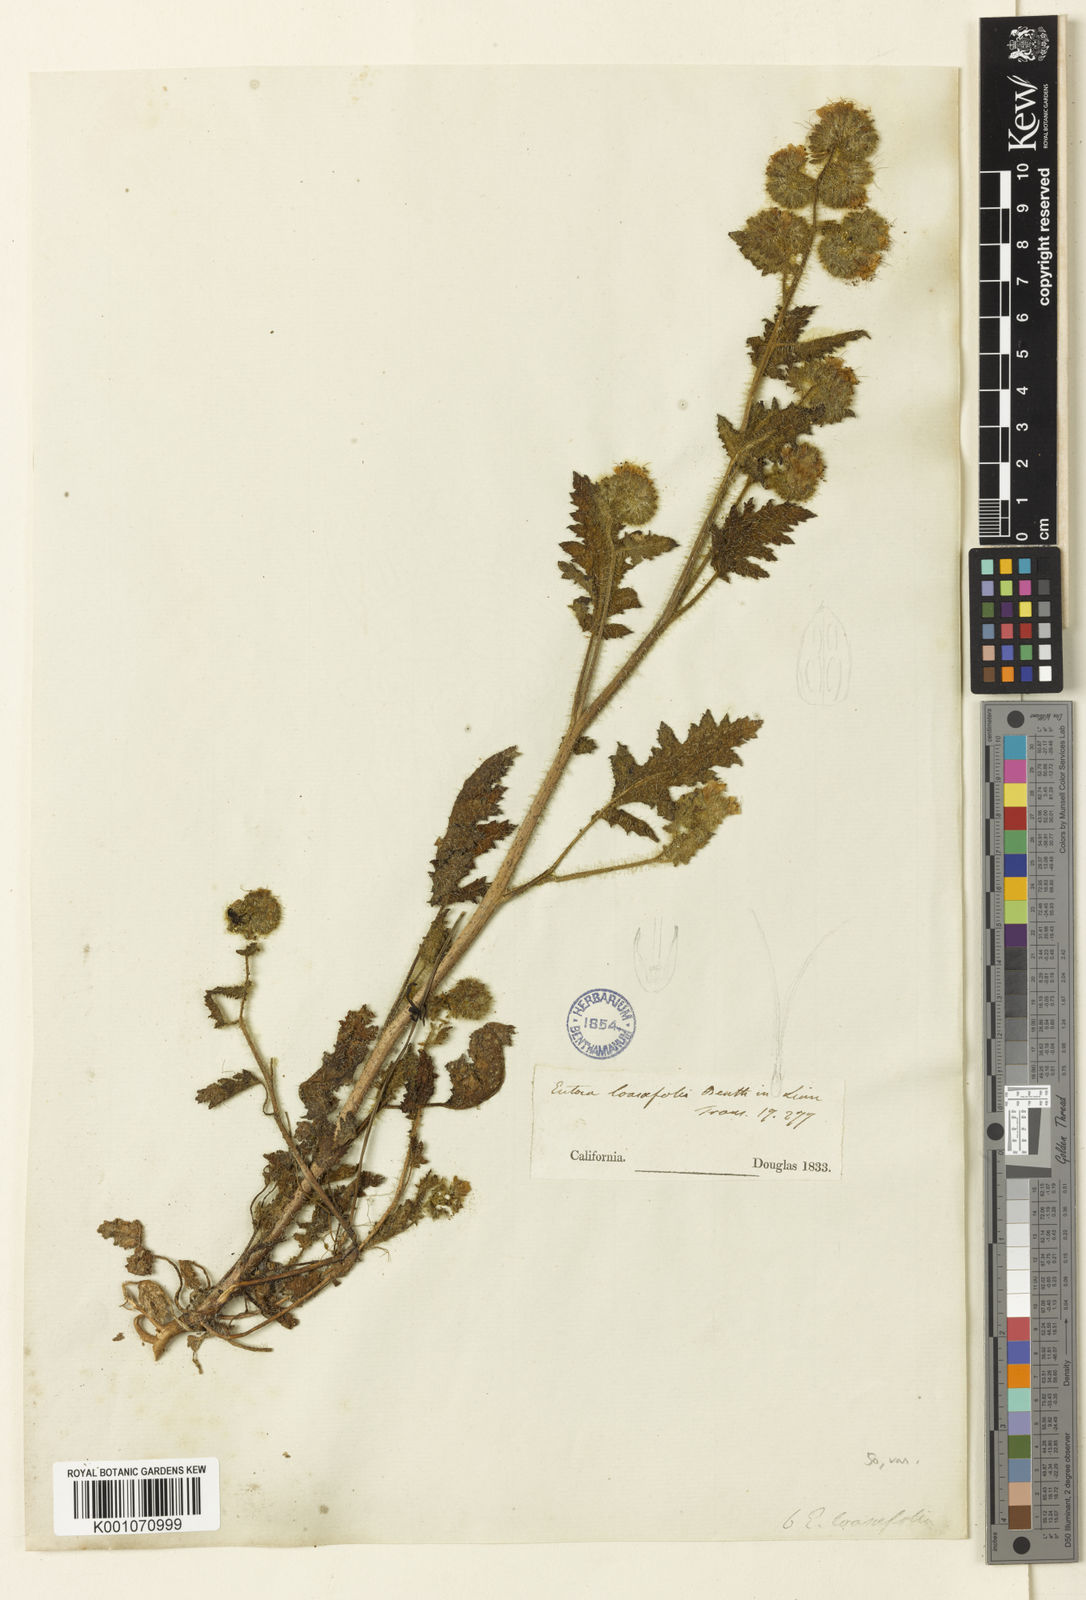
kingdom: Plantae
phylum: Tracheophyta
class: Magnoliopsida
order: Boraginales
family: Hydrophyllaceae
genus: Phacelia
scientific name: Phacelia malvifolia
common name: Mallow-leaf phacelia
